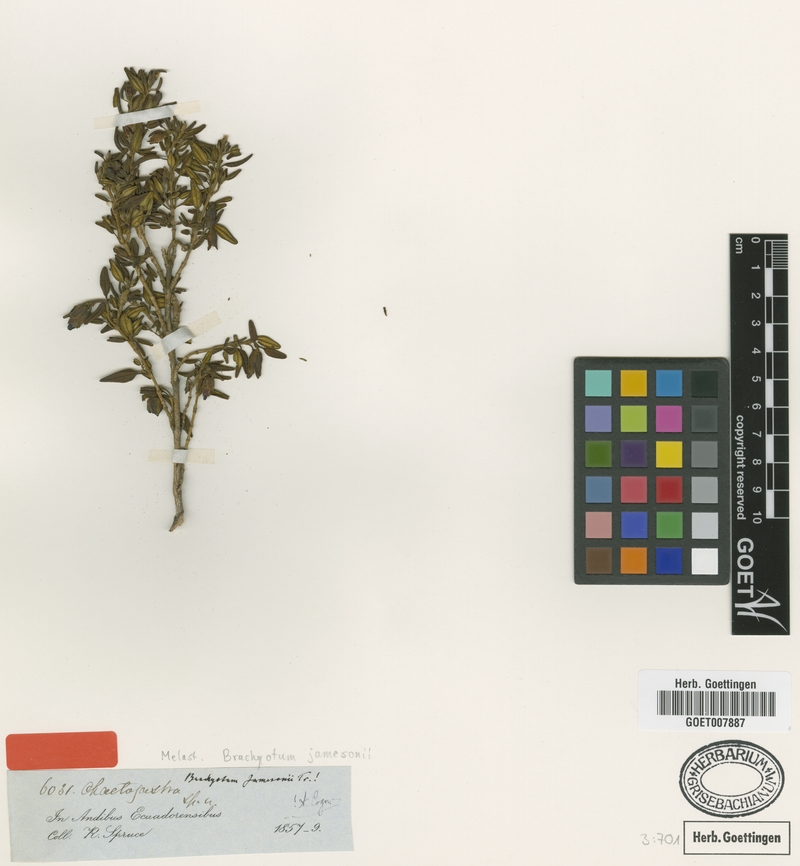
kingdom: Plantae
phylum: Tracheophyta
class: Magnoliopsida
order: Myrtales
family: Melastomataceae
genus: Brachyotum
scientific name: Brachyotum jamesonii
